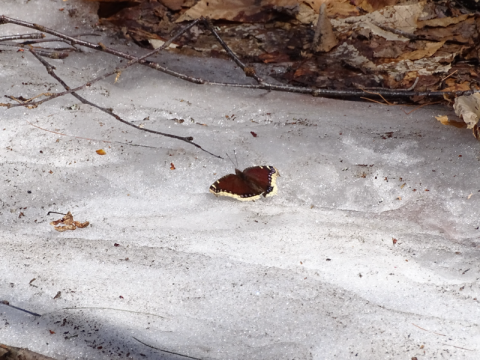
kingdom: Animalia
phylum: Arthropoda
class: Insecta
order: Lepidoptera
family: Nymphalidae
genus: Nymphalis
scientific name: Nymphalis antiopa
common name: Mourning Cloak
